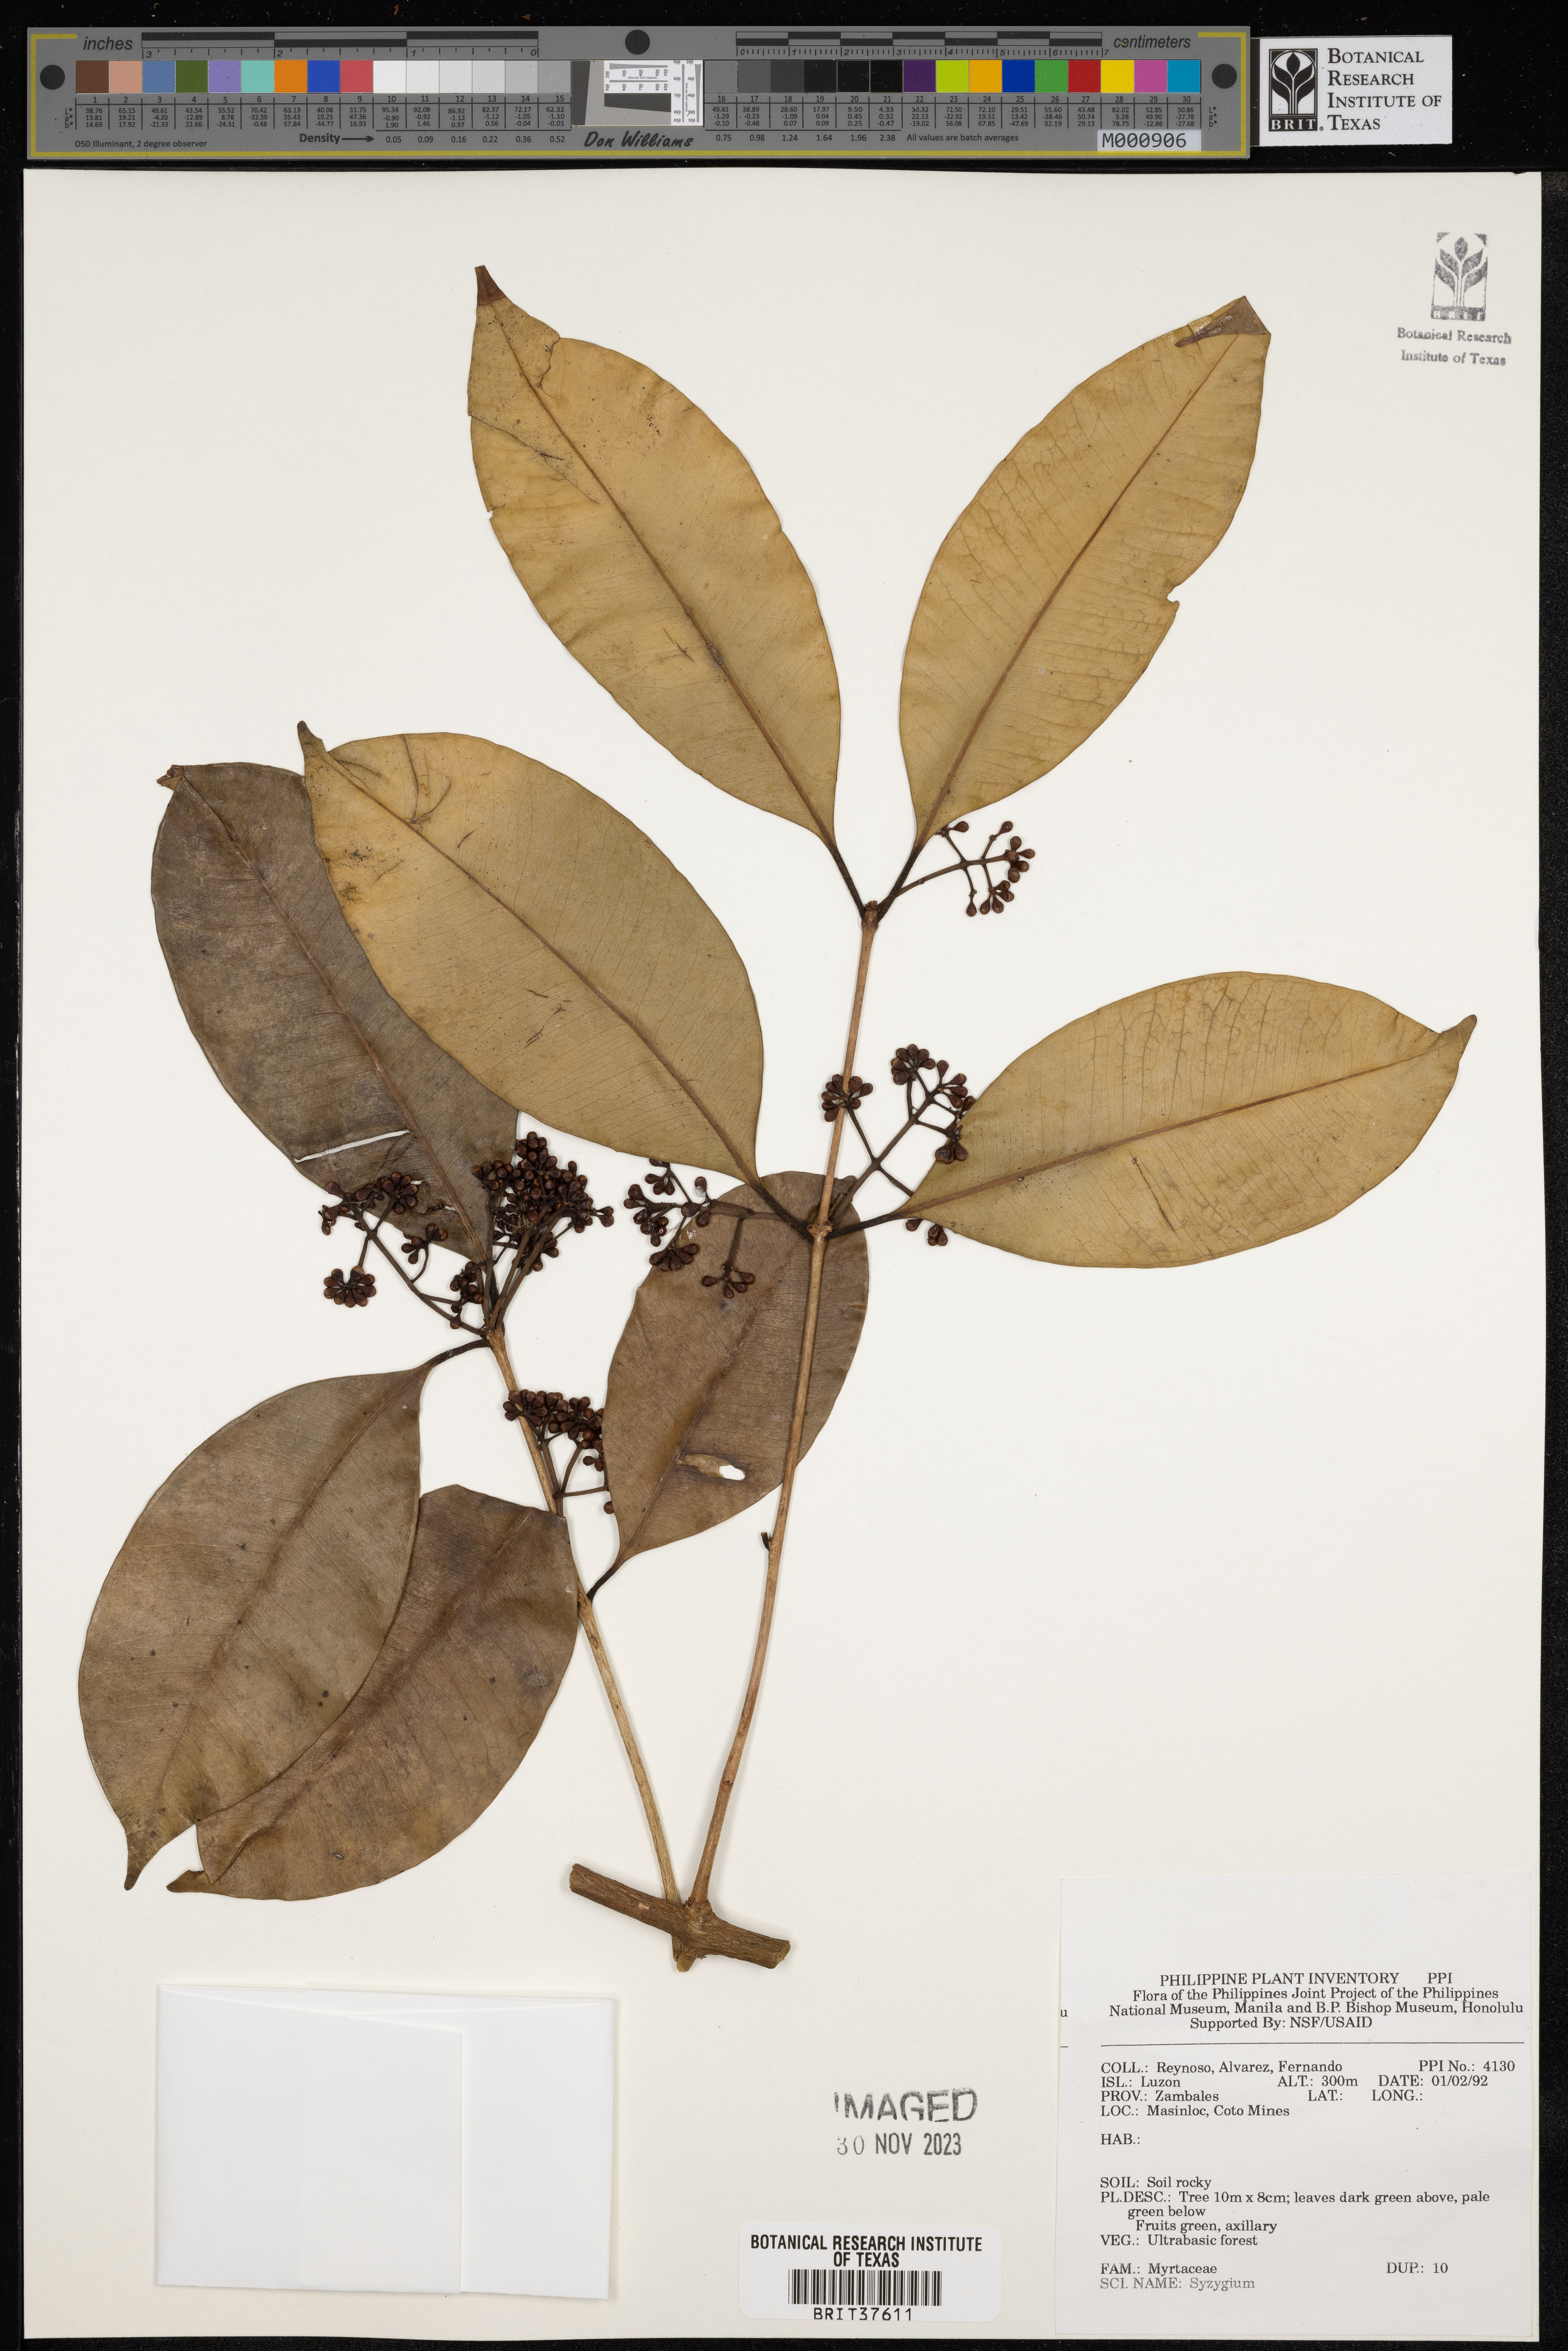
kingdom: Plantae
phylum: Tracheophyta
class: Magnoliopsida
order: Myrtales
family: Myrtaceae
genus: Syzygium
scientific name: Syzygium
